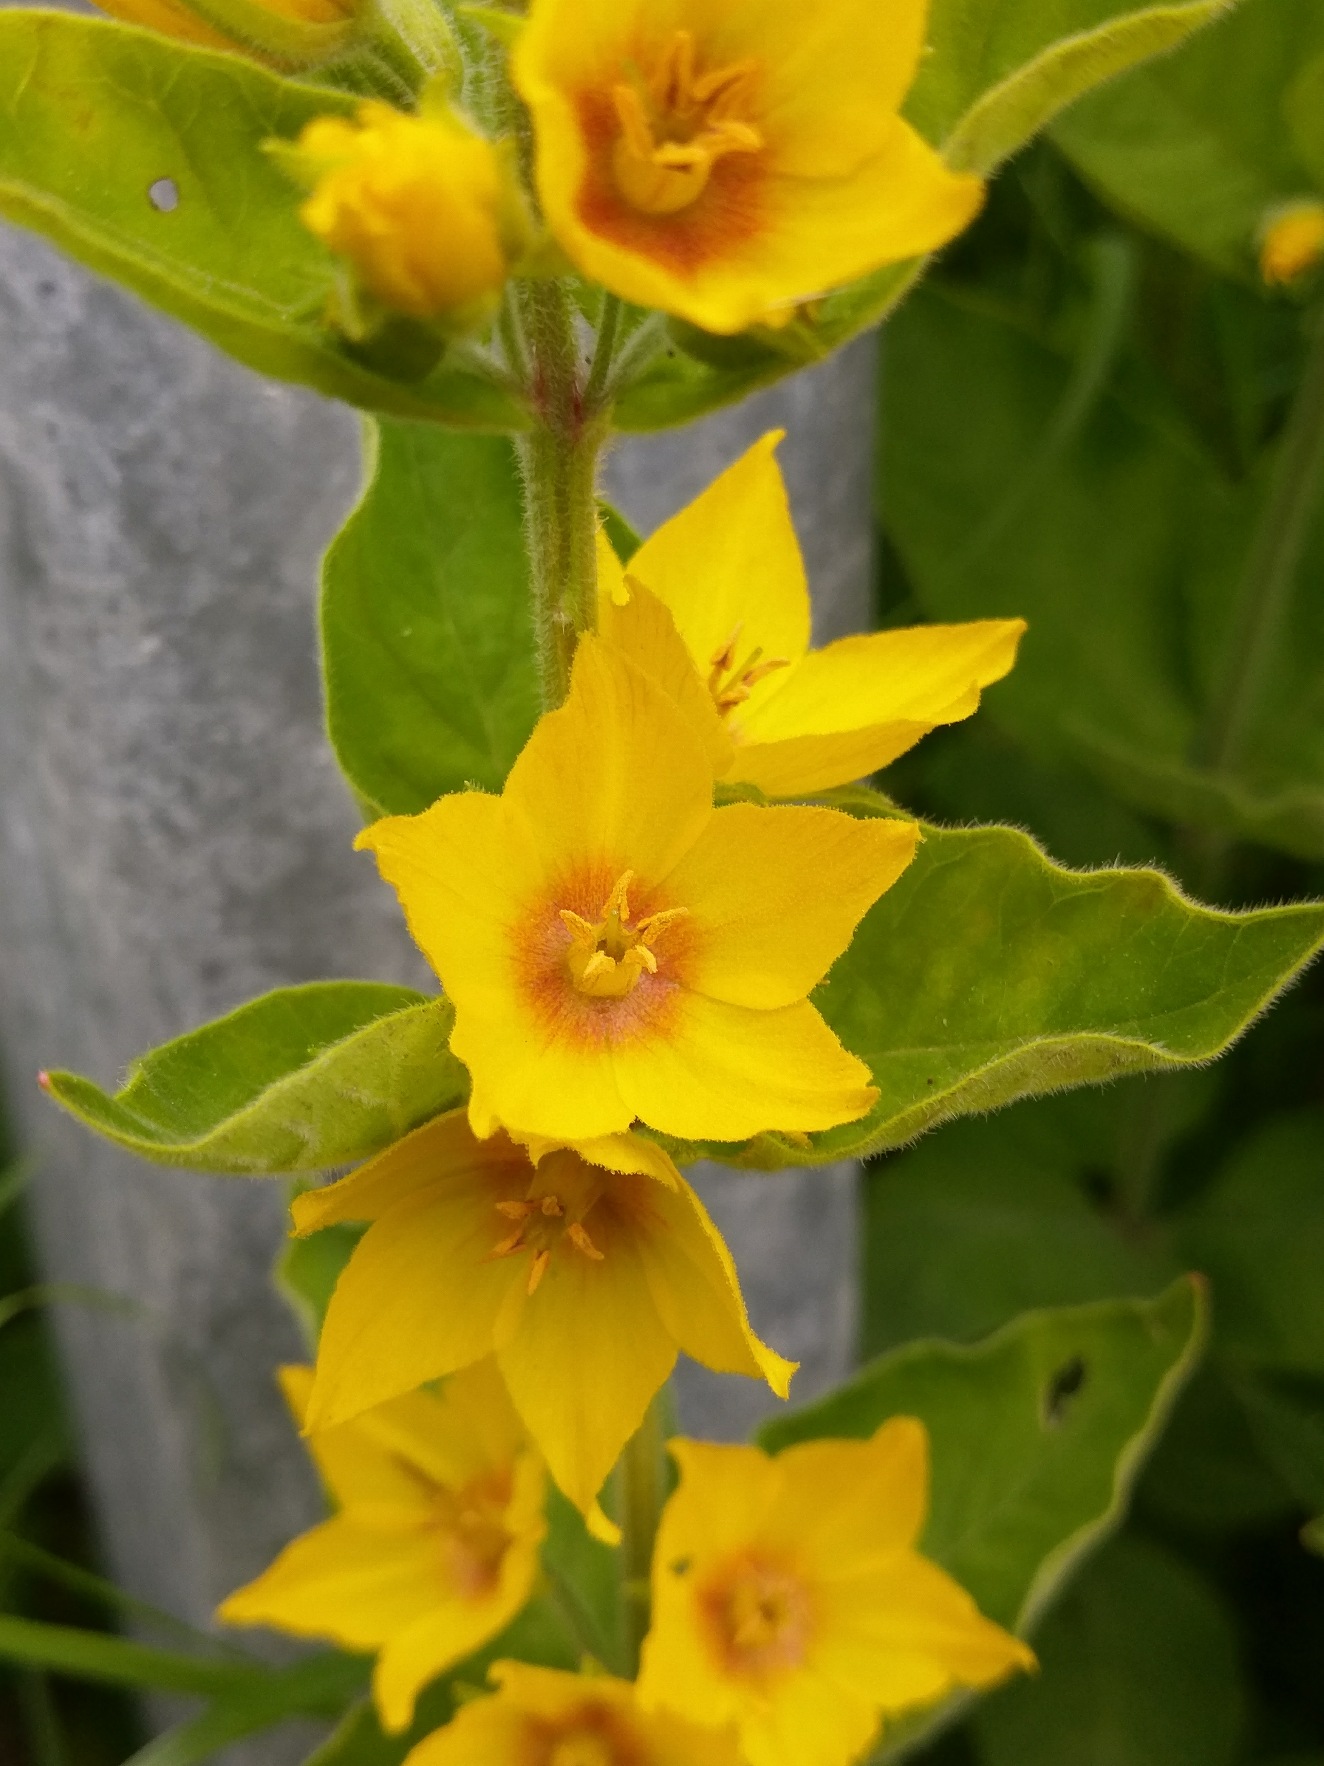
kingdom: Plantae
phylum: Tracheophyta
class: Magnoliopsida
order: Ericales
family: Primulaceae
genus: Lysimachia
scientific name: Lysimachia punctata
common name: Prikbladet fredløs
